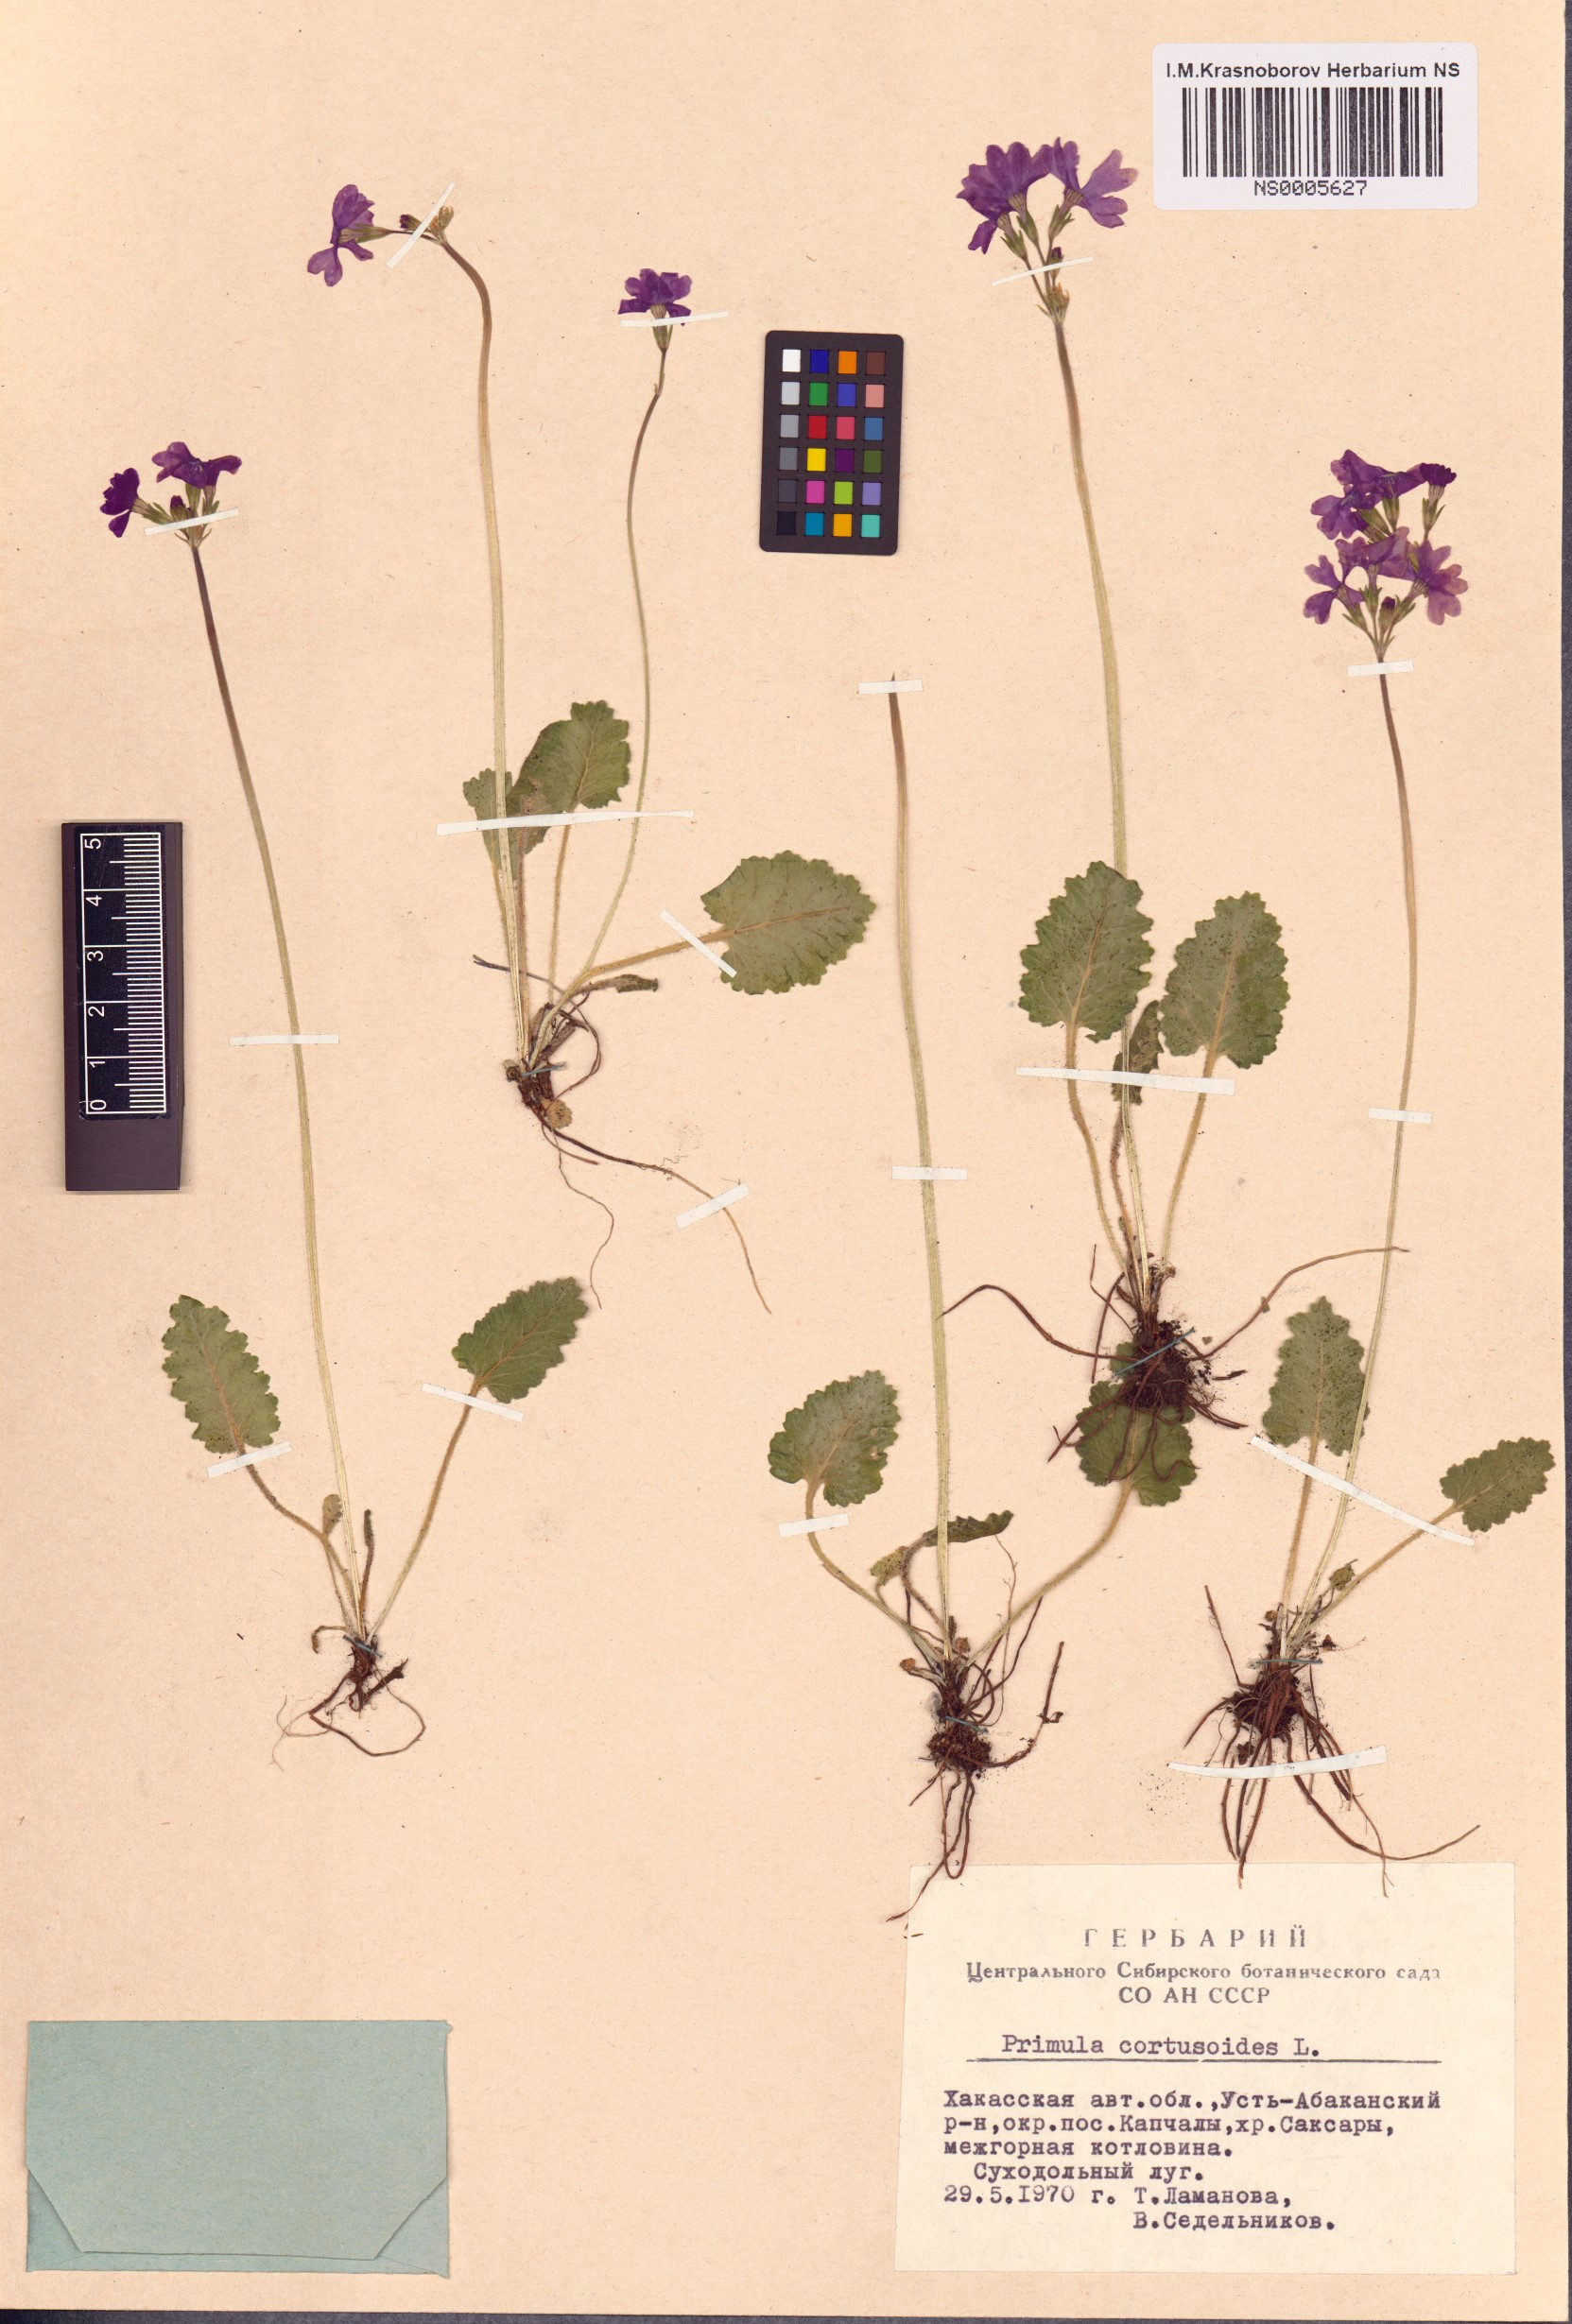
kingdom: Plantae
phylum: Tracheophyta
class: Magnoliopsida
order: Ericales
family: Primulaceae
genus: Primula
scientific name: Primula cortusoides
